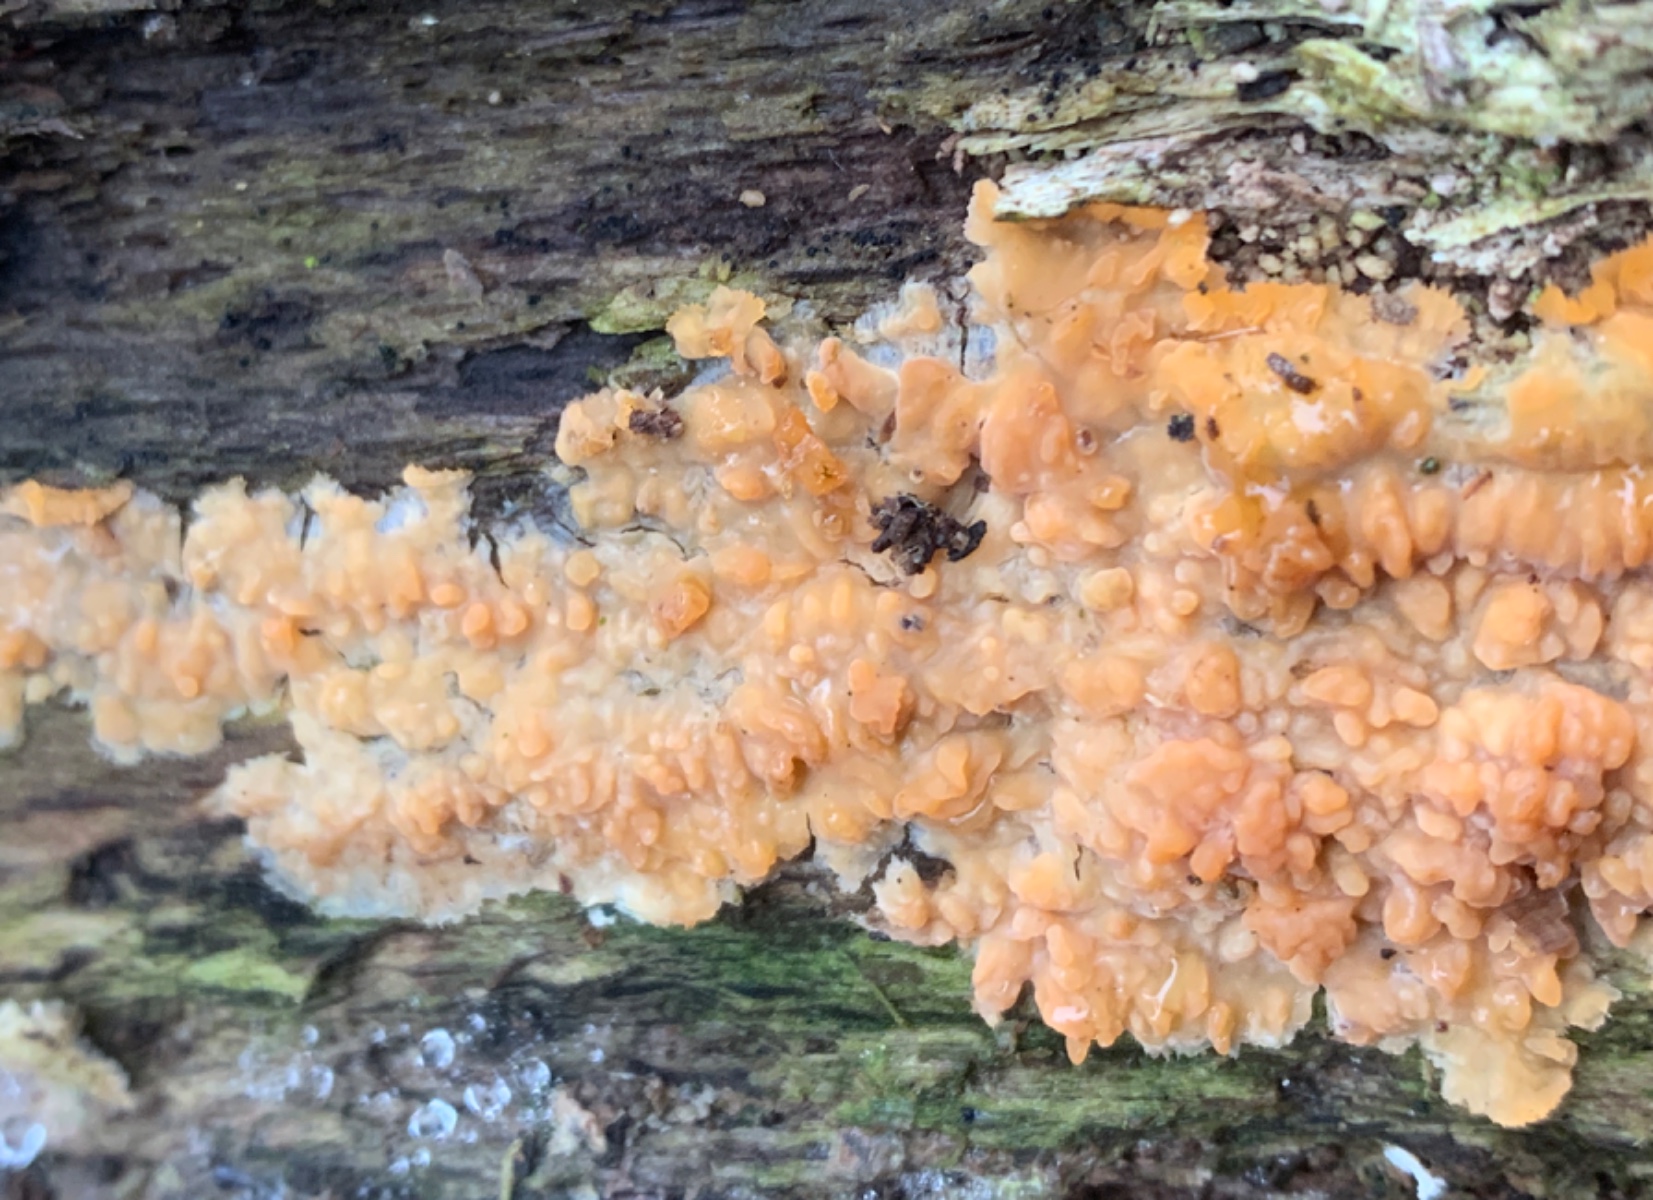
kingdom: Fungi
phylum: Basidiomycota
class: Agaricomycetes
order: Polyporales
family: Meruliaceae
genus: Phlebia
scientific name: Phlebia radiata
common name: stråle-åresvamp
